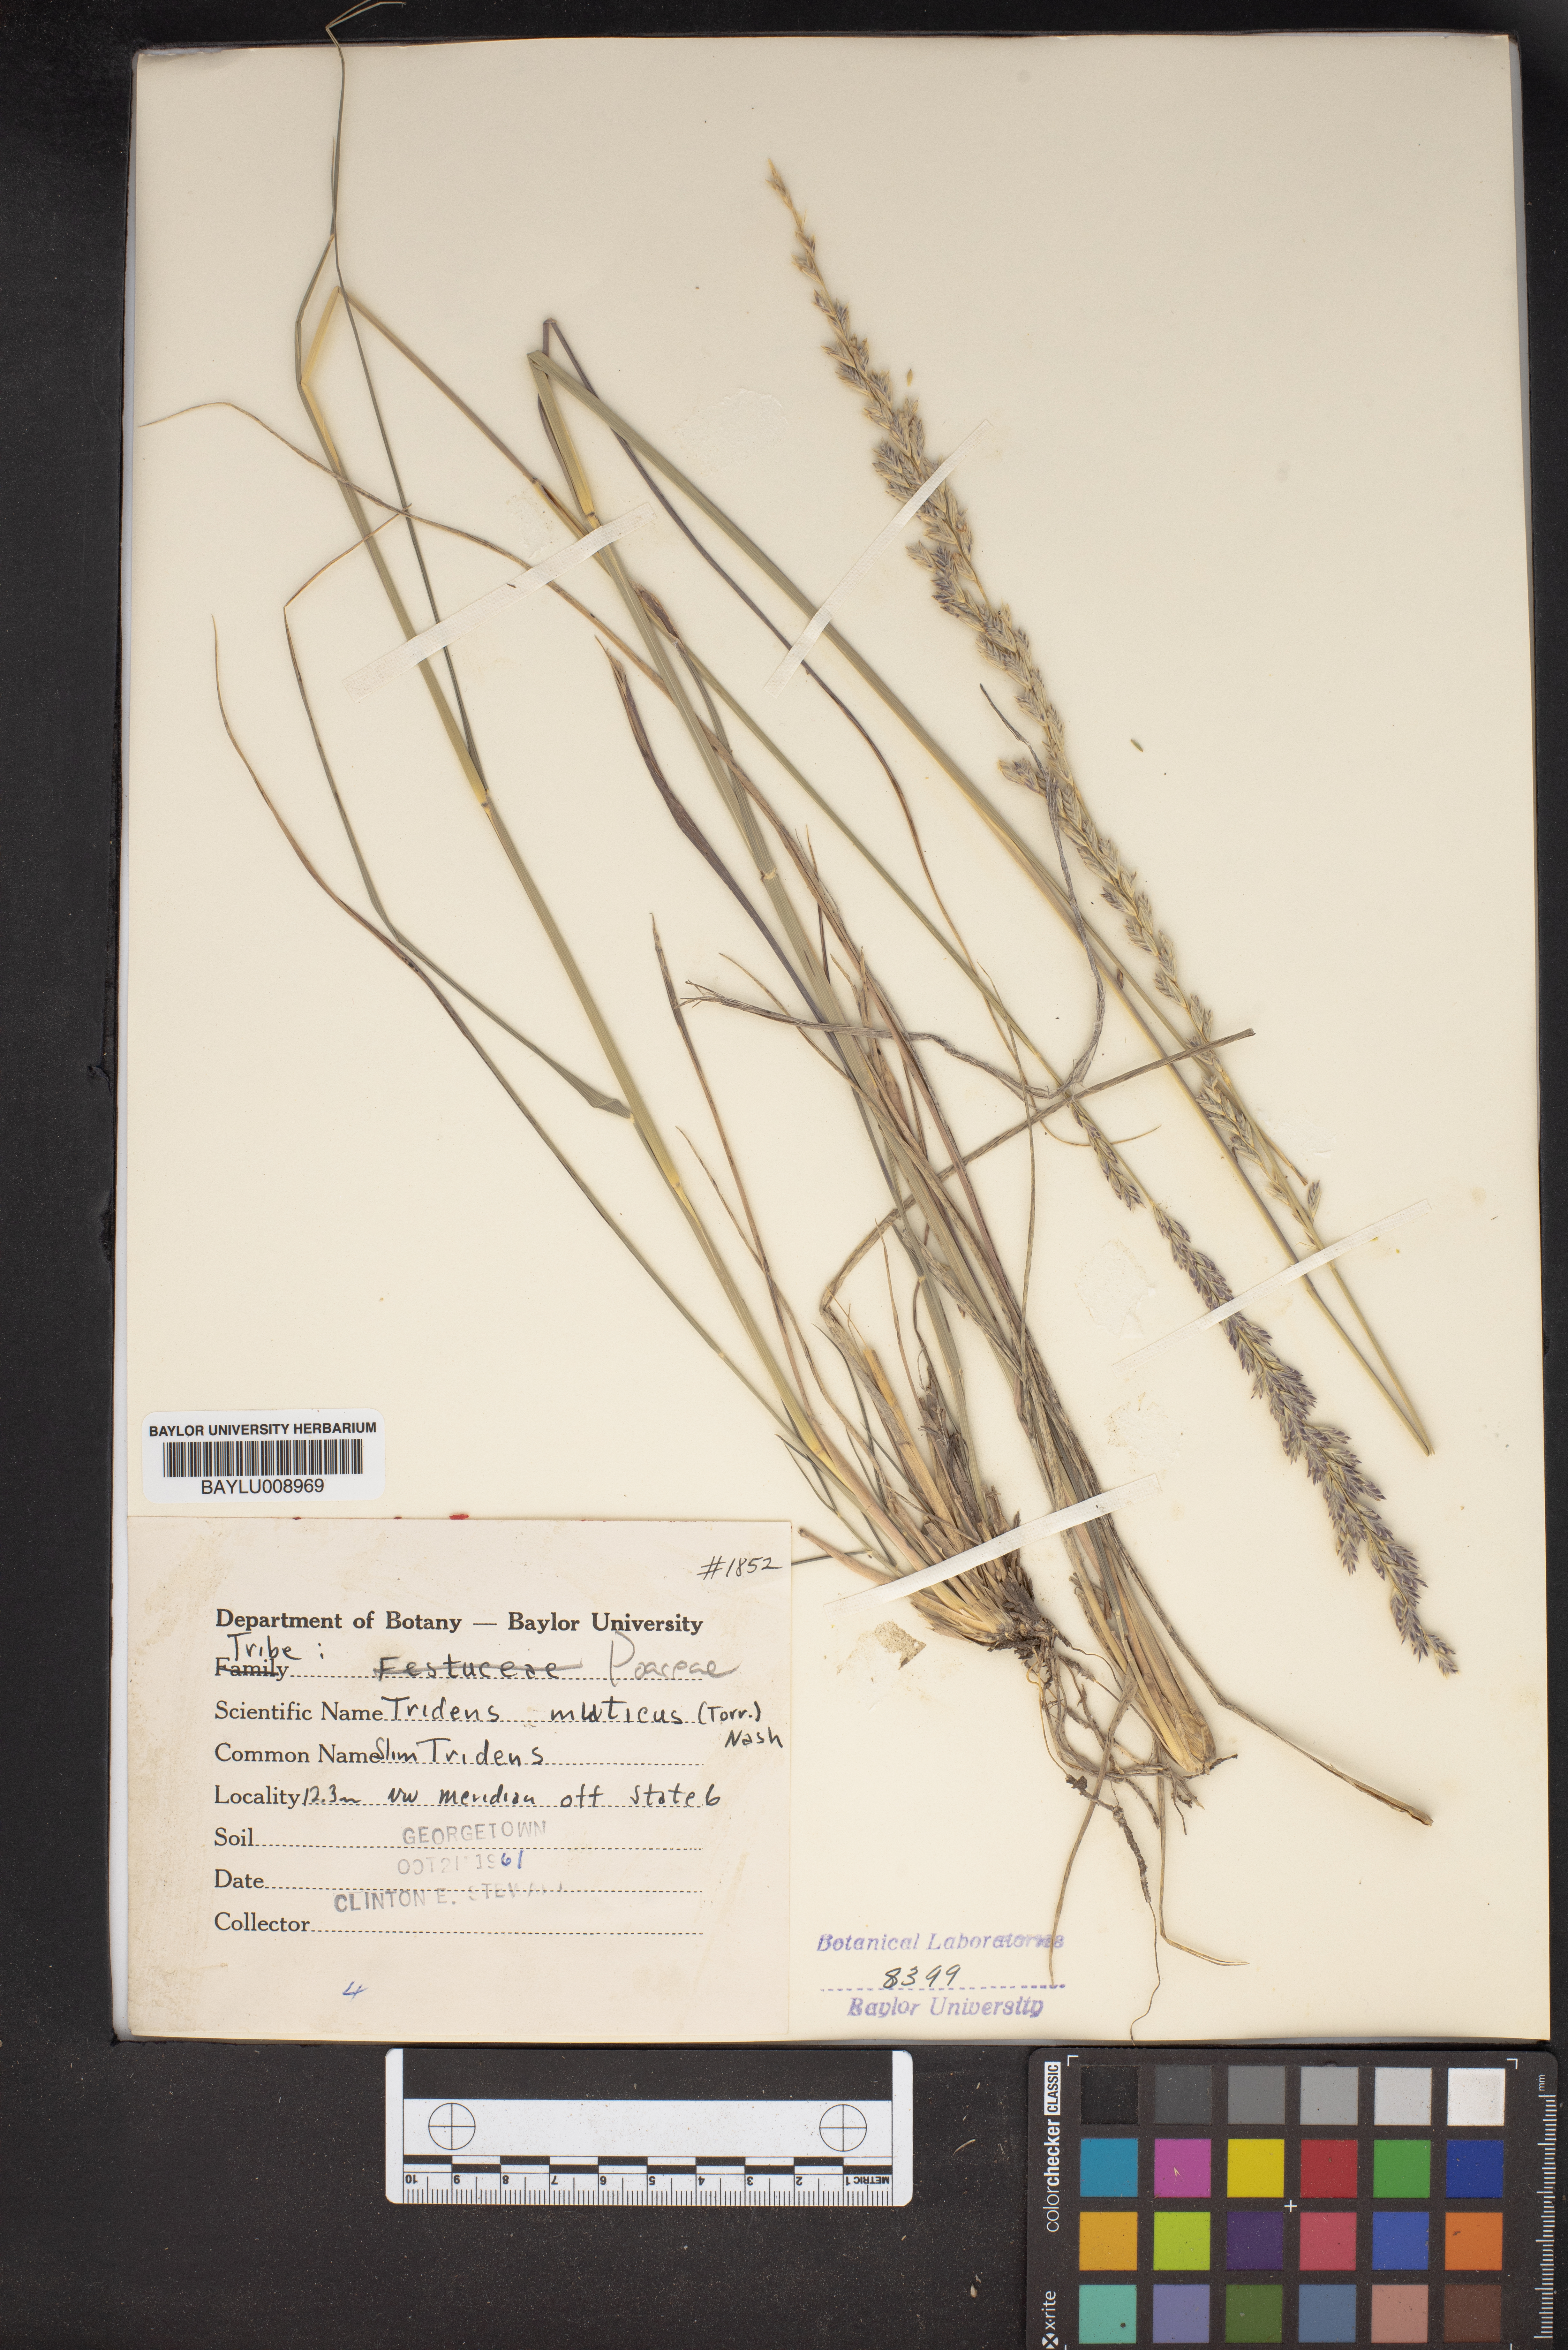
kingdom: Plantae
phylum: Tracheophyta
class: Liliopsida
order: Poales
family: Poaceae
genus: Tridentopsis
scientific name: Tridentopsis mutica
